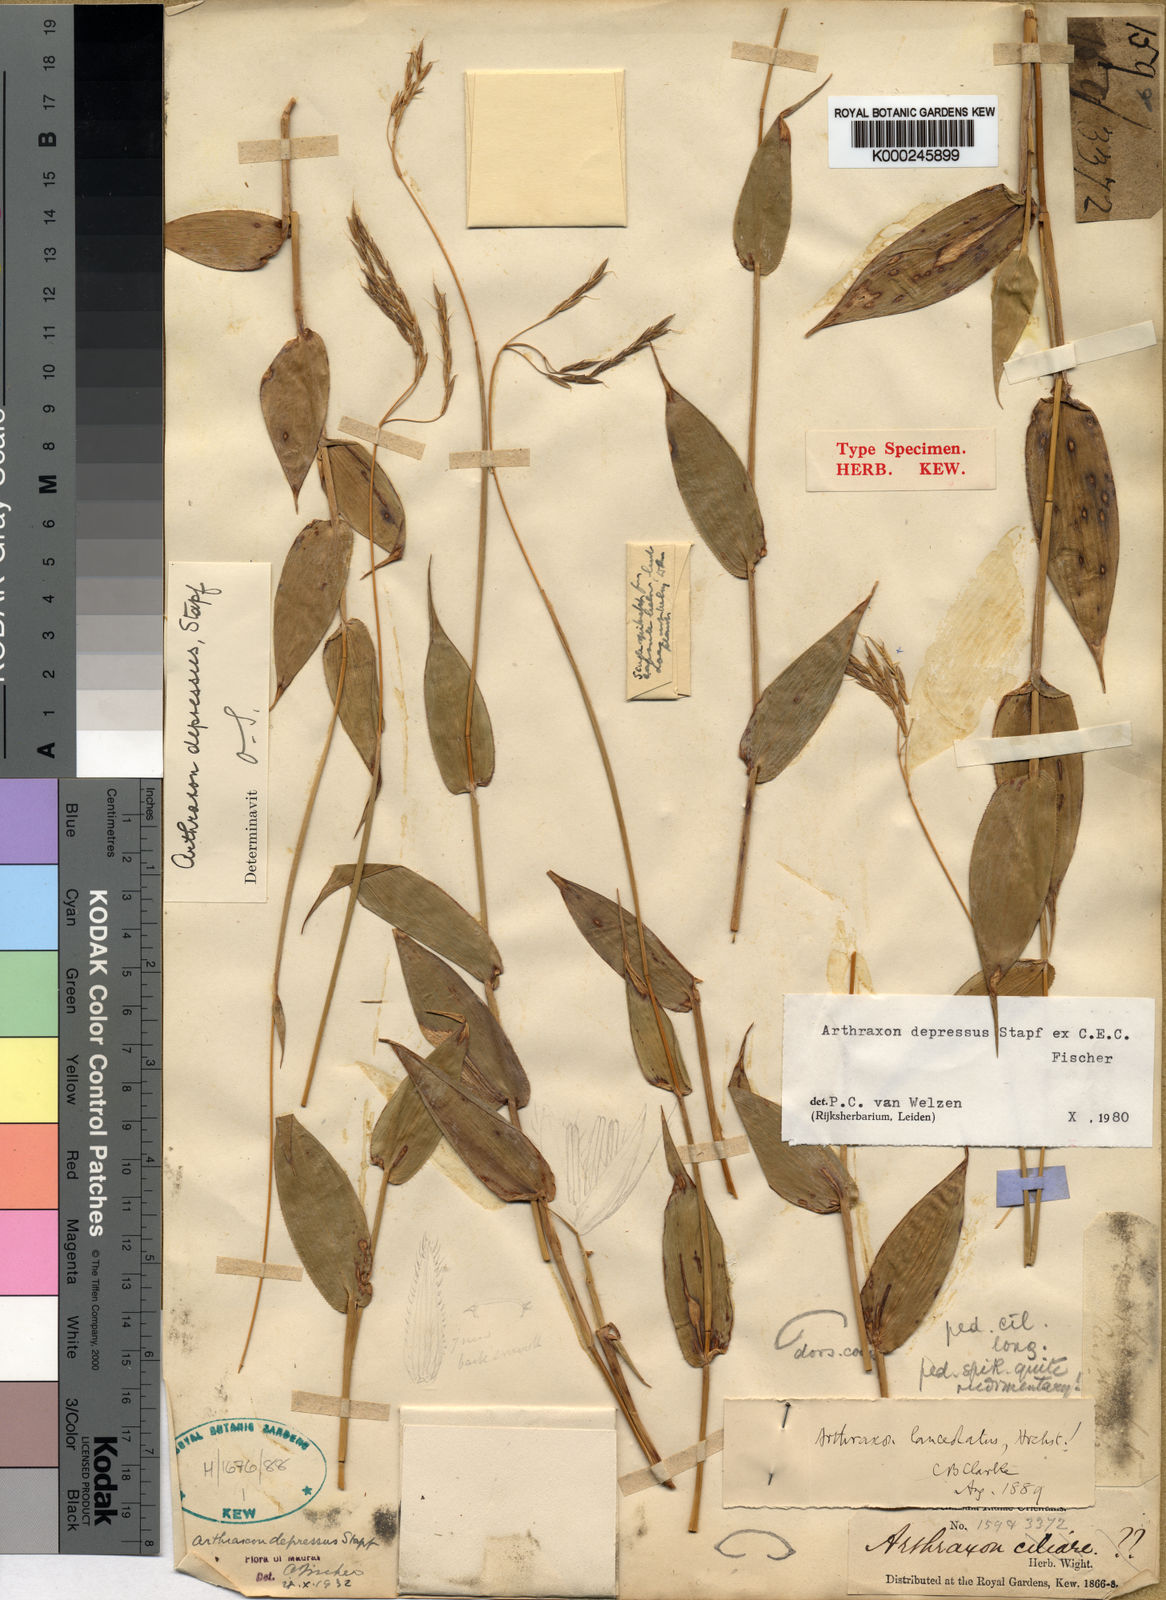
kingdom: Plantae
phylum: Tracheophyta
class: Liliopsida
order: Poales
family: Poaceae
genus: Arthraxon
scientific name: Arthraxon depressus
